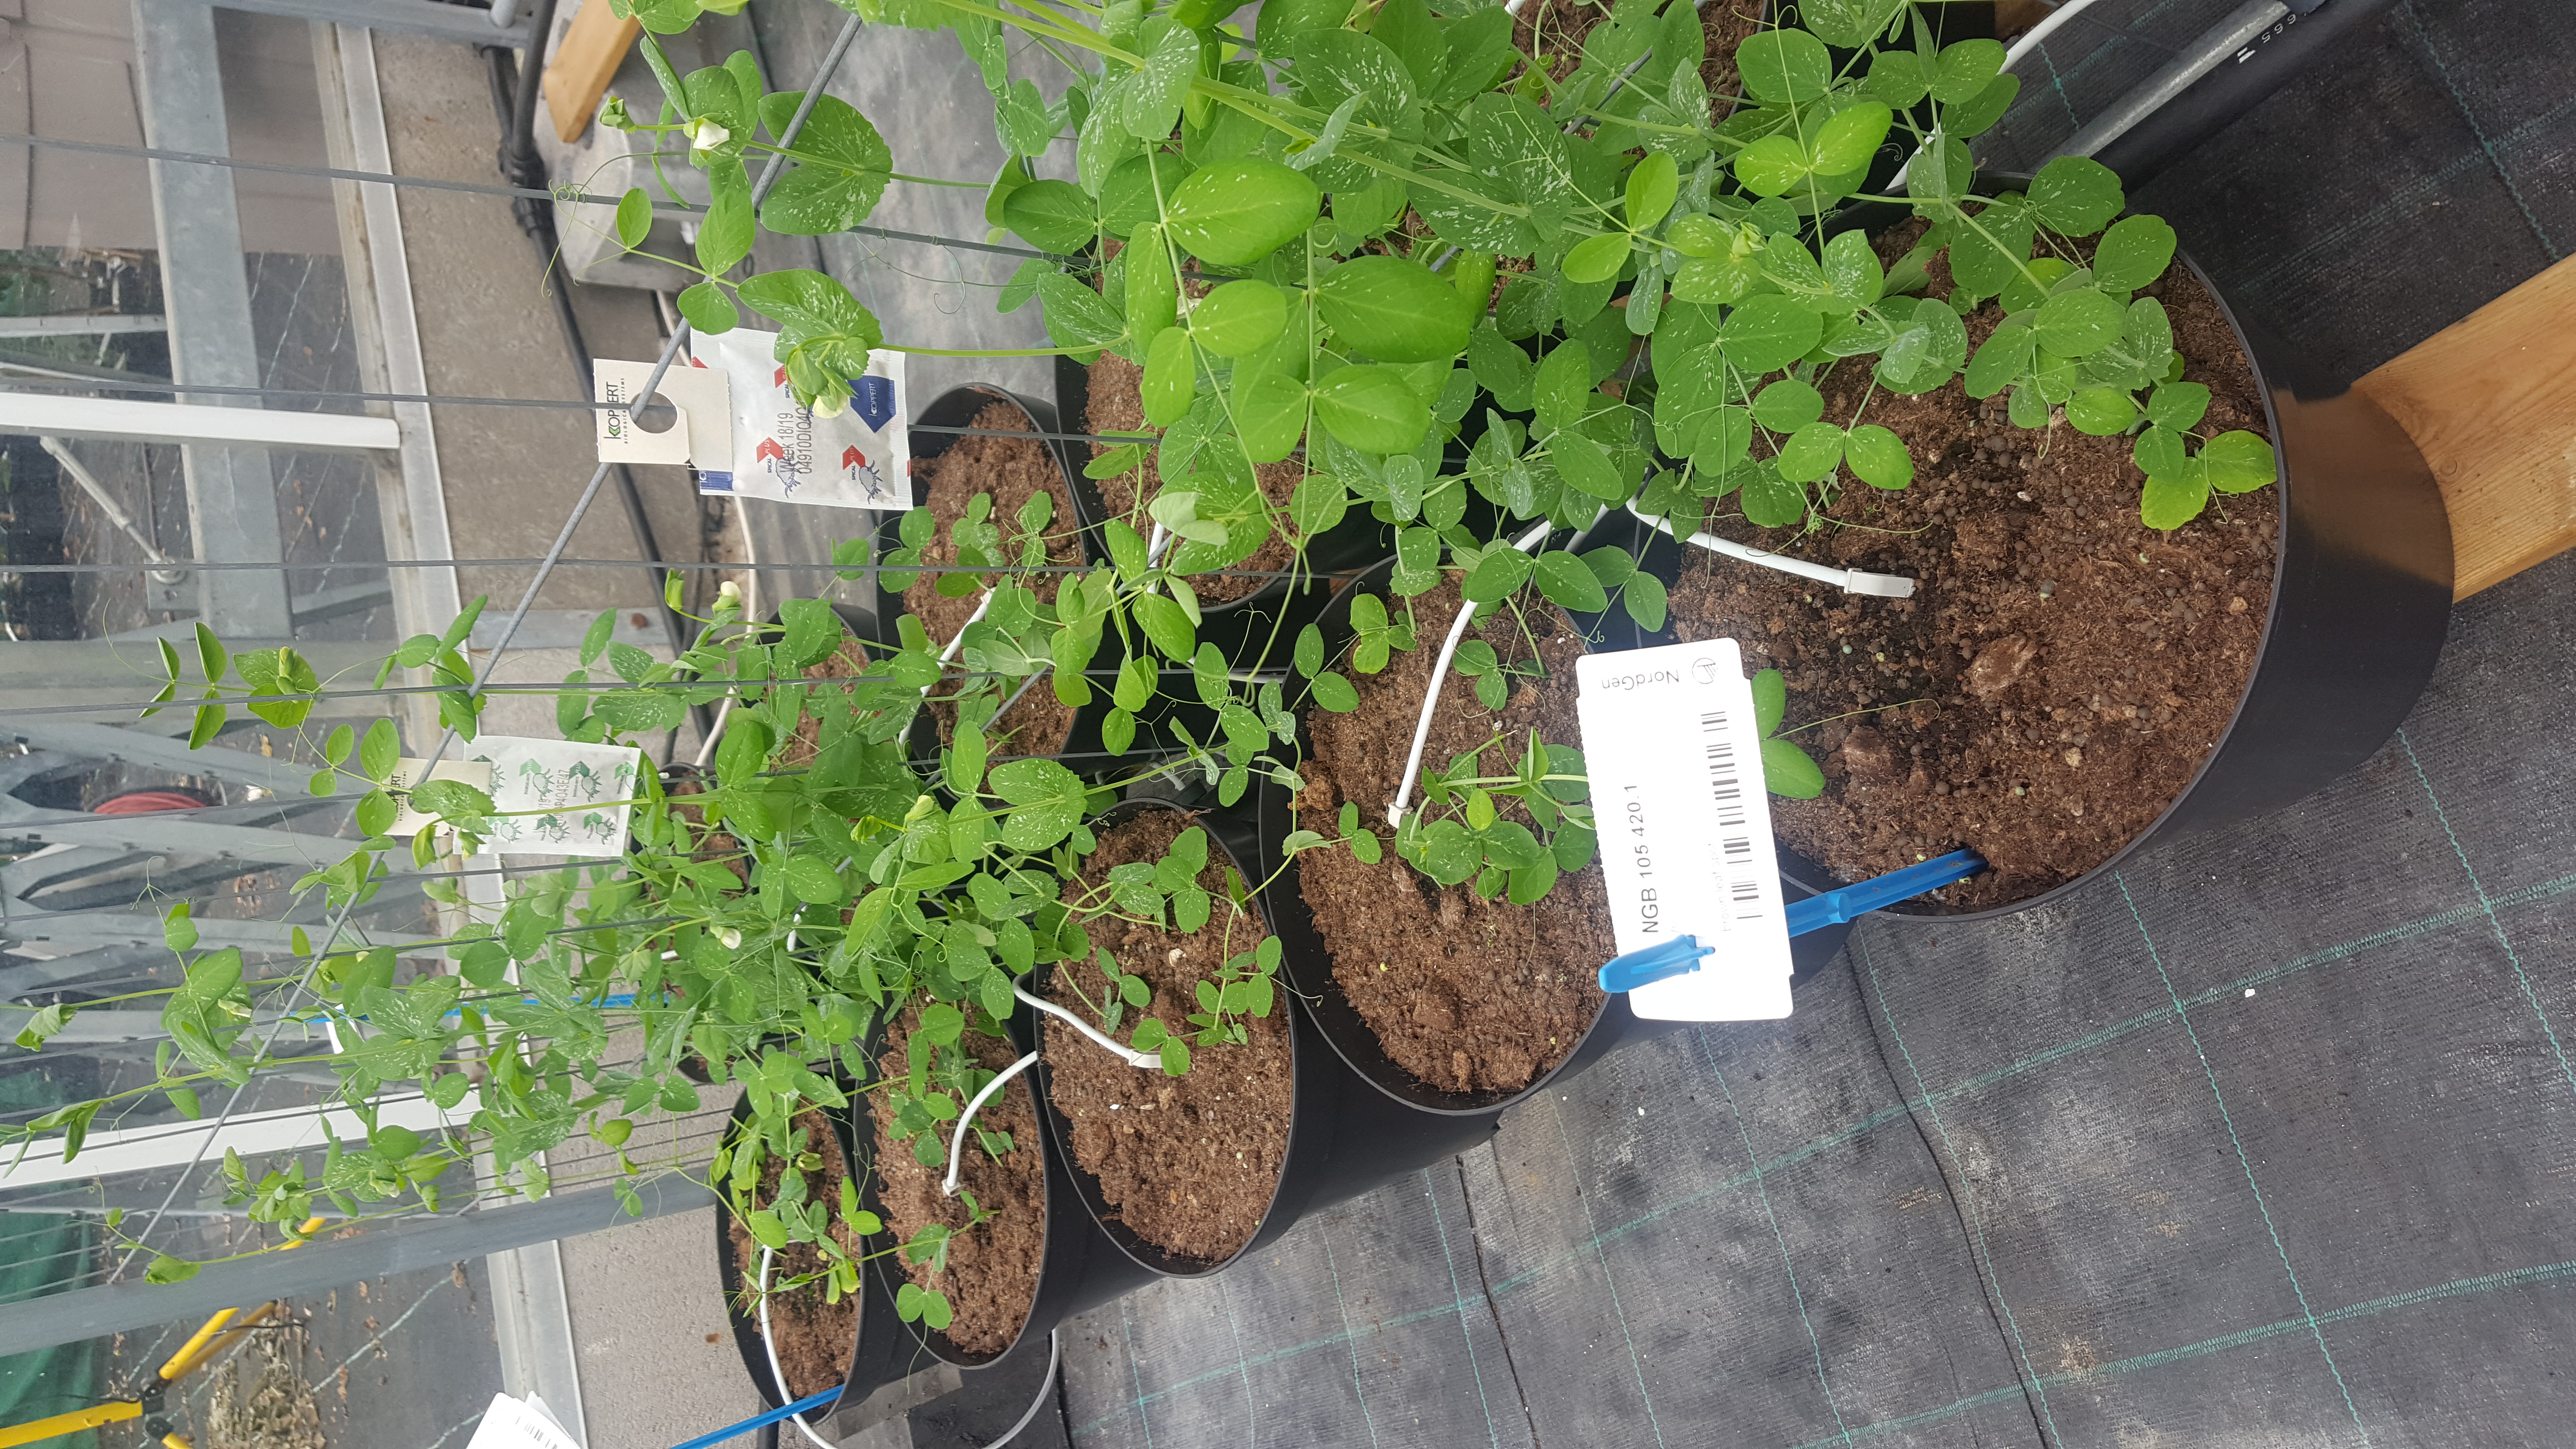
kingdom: Plantae
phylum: Tracheophyta
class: Magnoliopsida
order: Fabales
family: Fabaceae
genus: Lathyrus
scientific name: Lathyrus oleraceus
